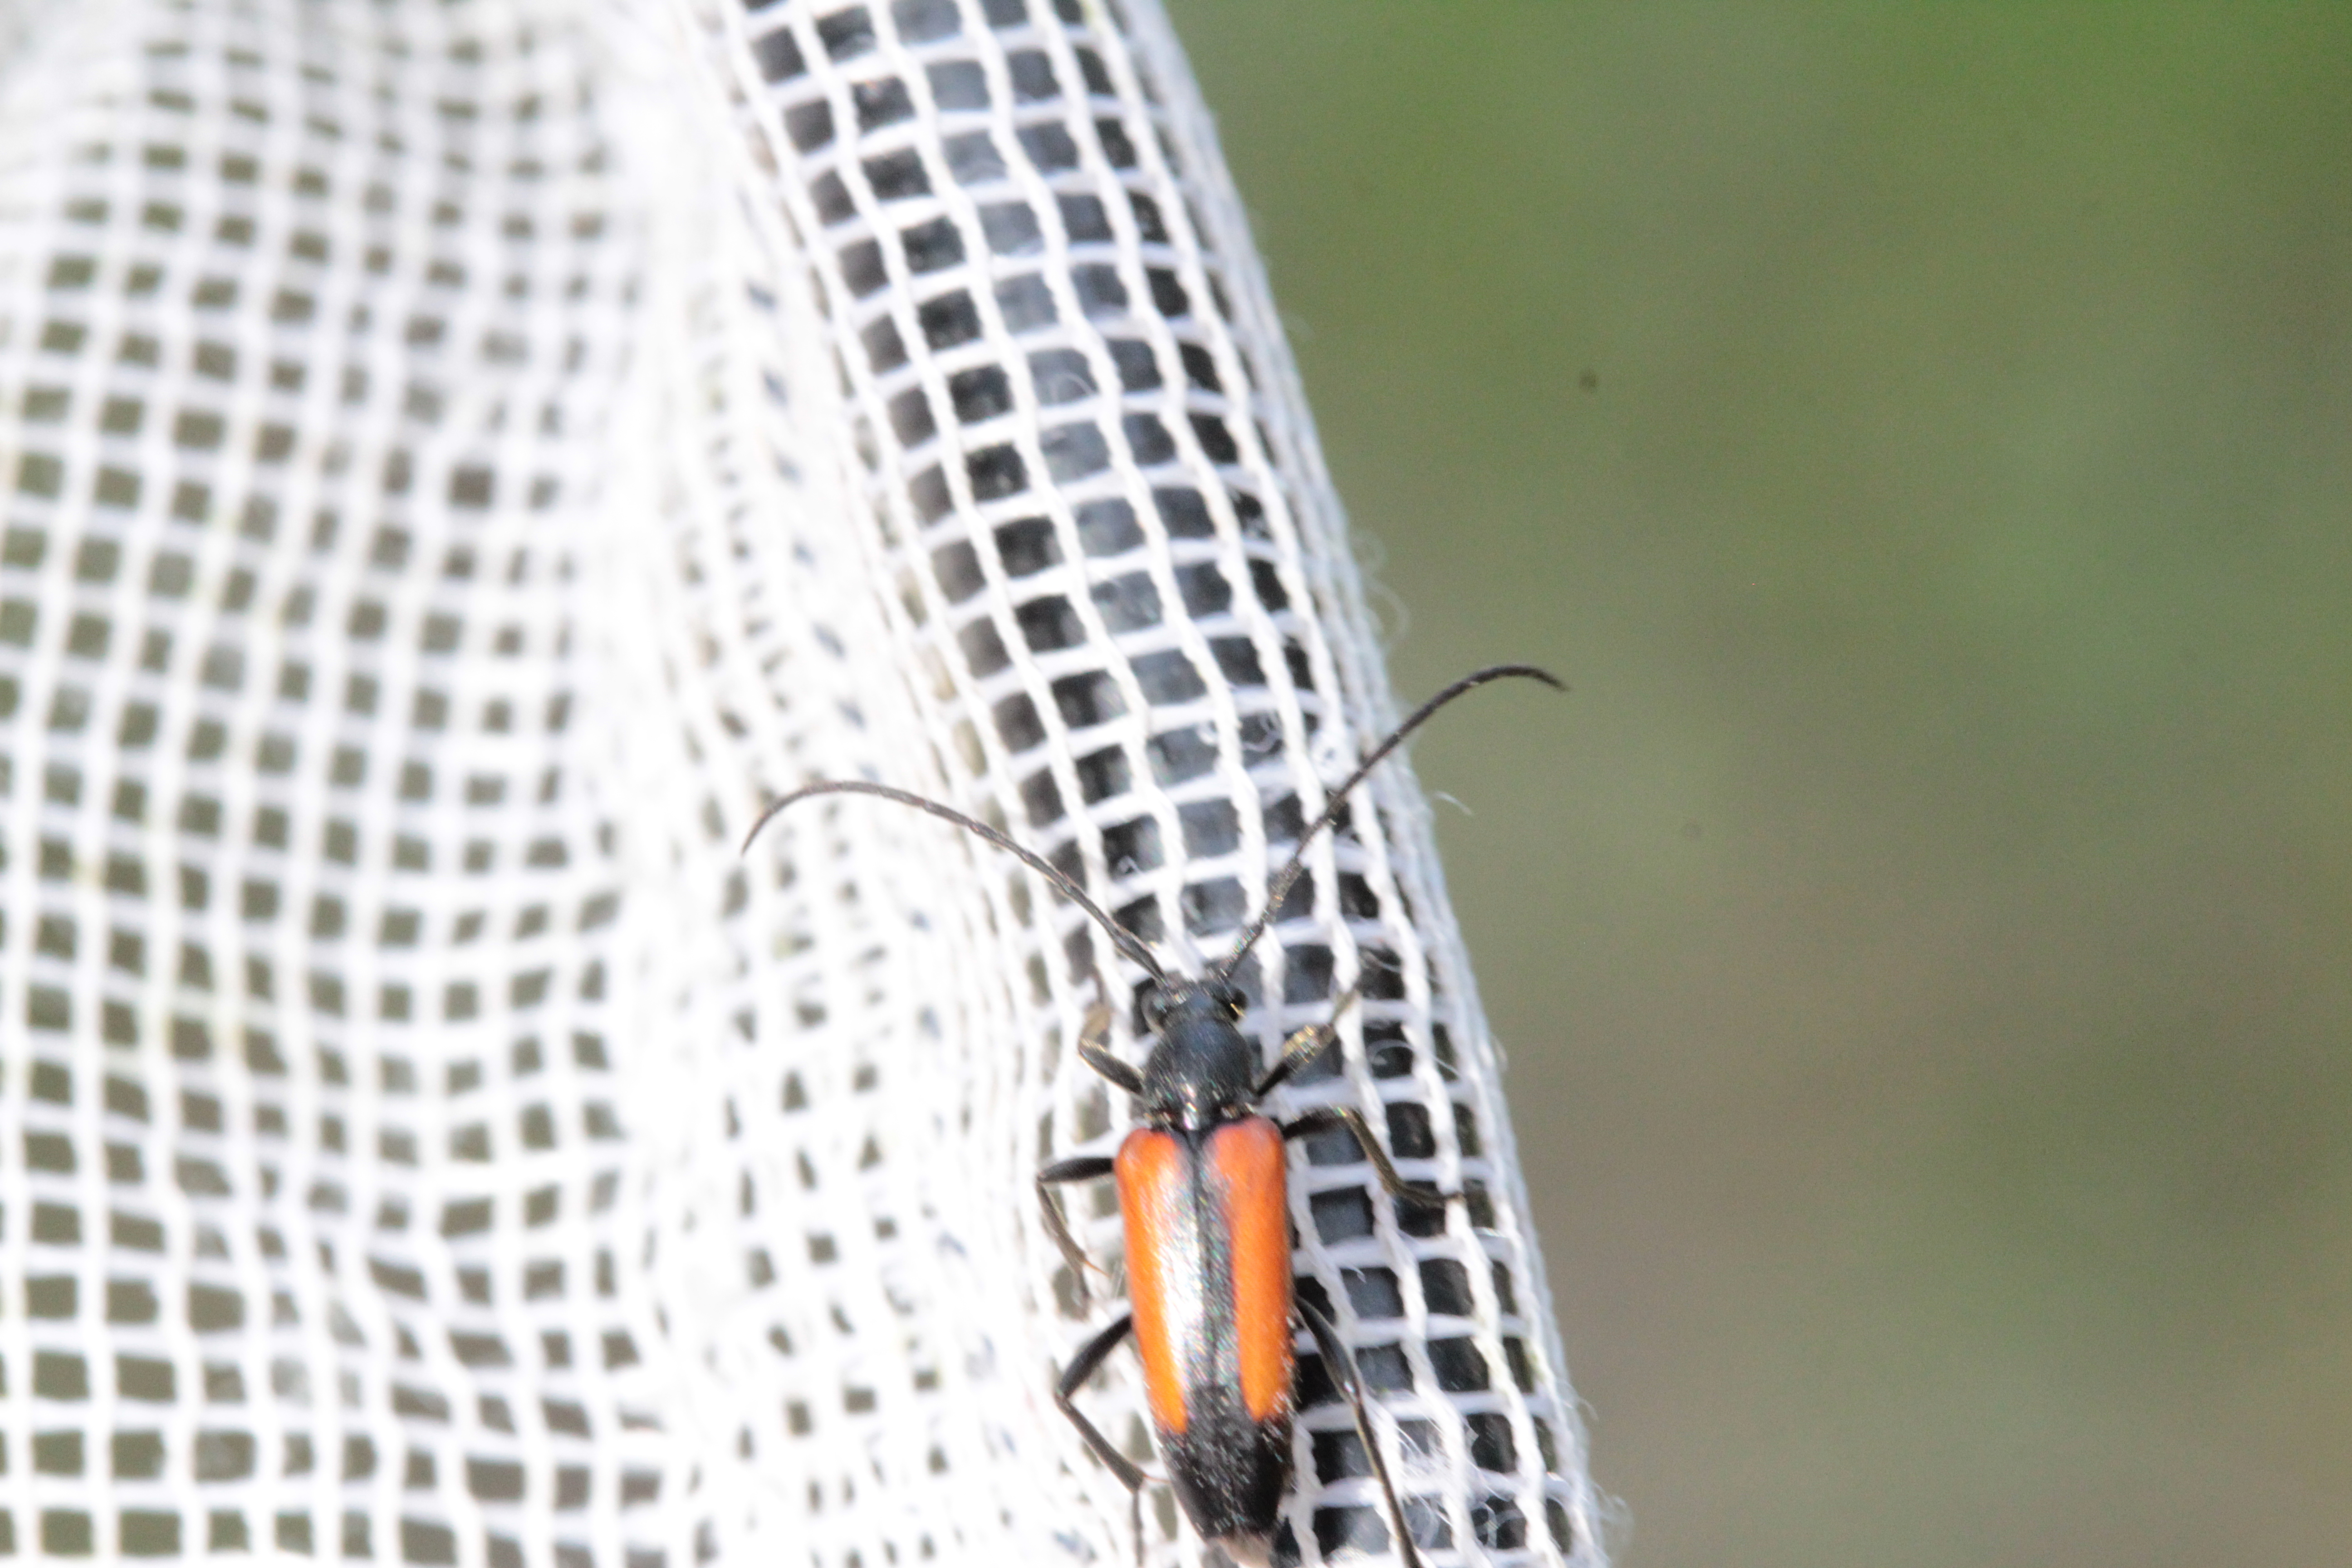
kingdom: Animalia
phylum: Arthropoda
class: Insecta
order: Coleoptera
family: Cerambycidae
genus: Stenurella
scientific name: Stenurella melanura
